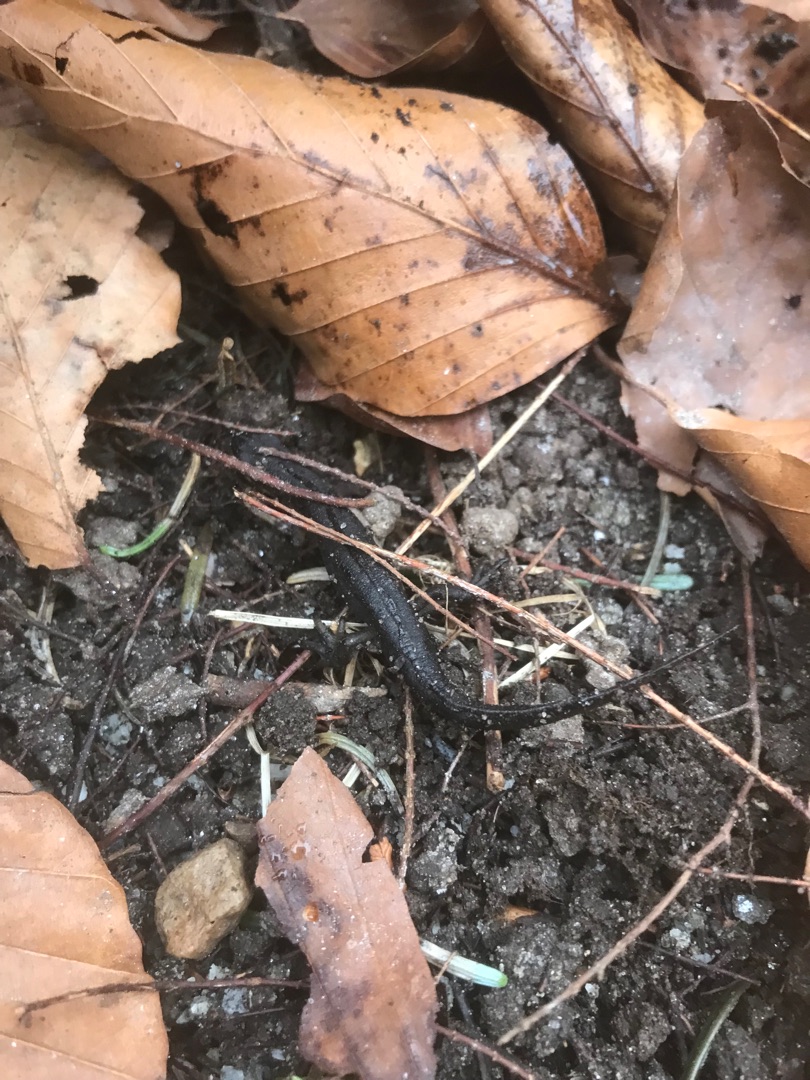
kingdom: Animalia
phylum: Chordata
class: Amphibia
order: Caudata
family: Salamandridae
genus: Lissotriton
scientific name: Lissotriton vulgaris
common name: Lille vandsalamander
